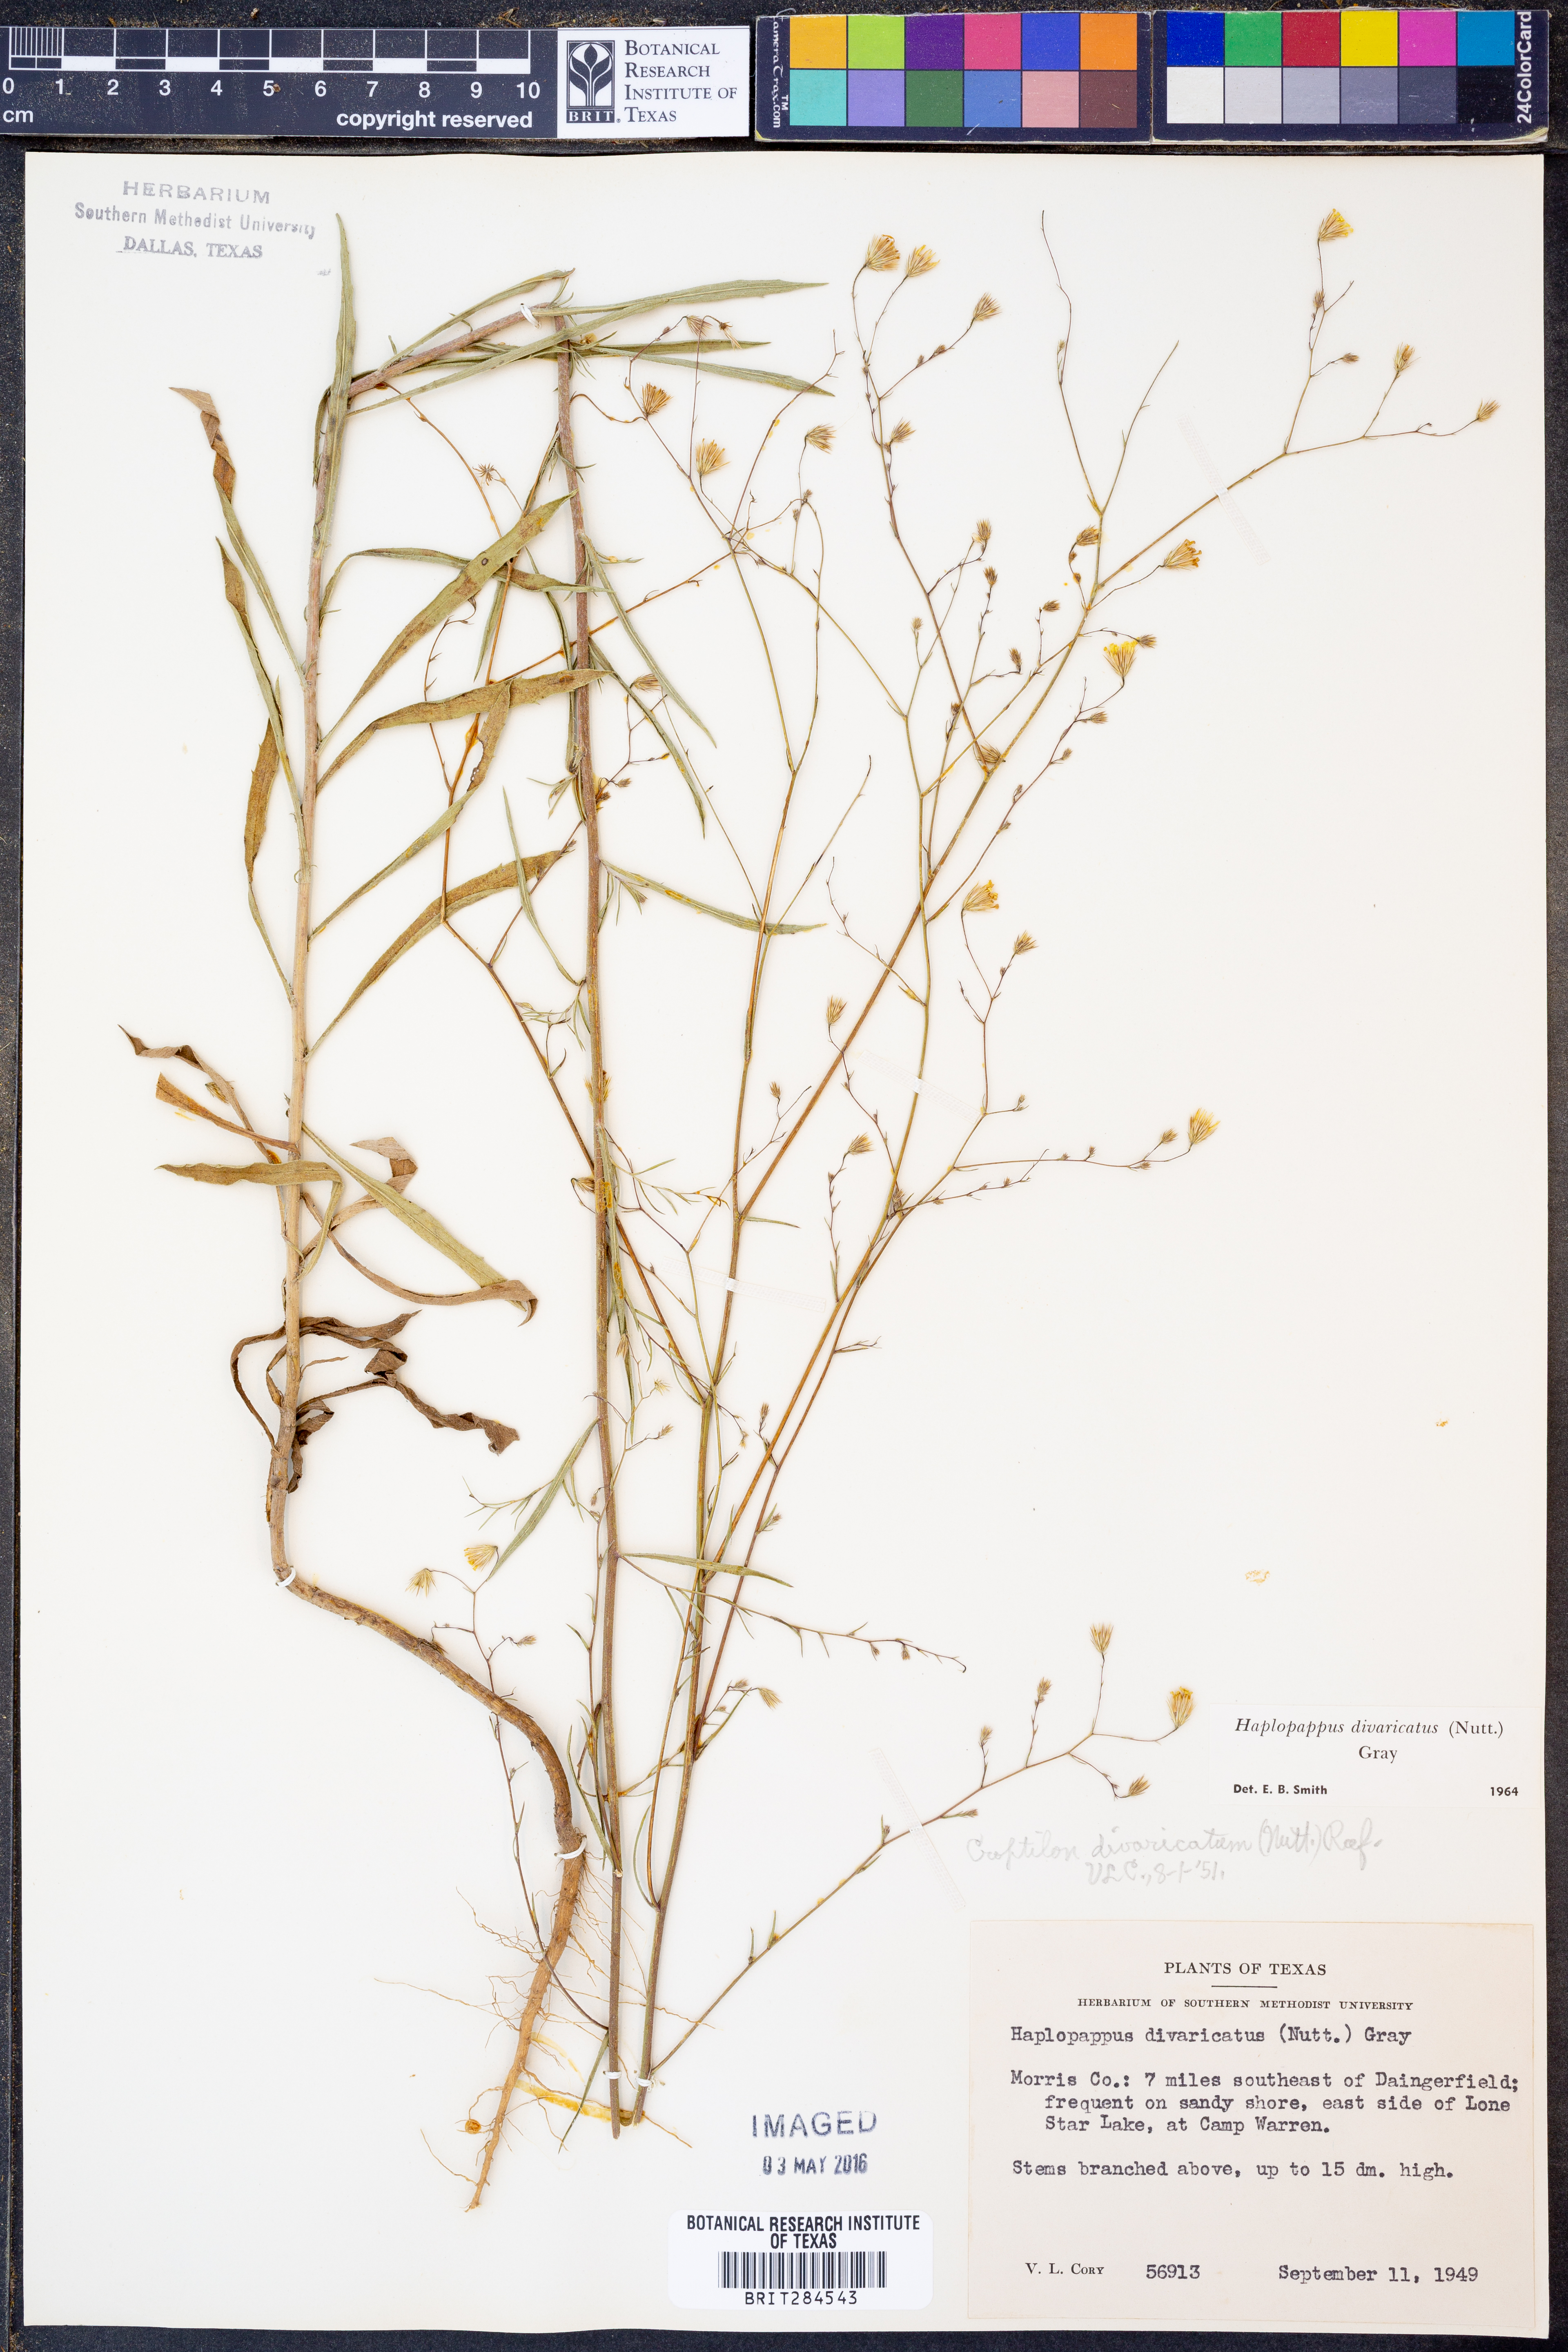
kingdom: Plantae
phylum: Tracheophyta
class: Magnoliopsida
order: Asterales
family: Asteraceae
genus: Croptilon
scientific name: Croptilon divaricatum
